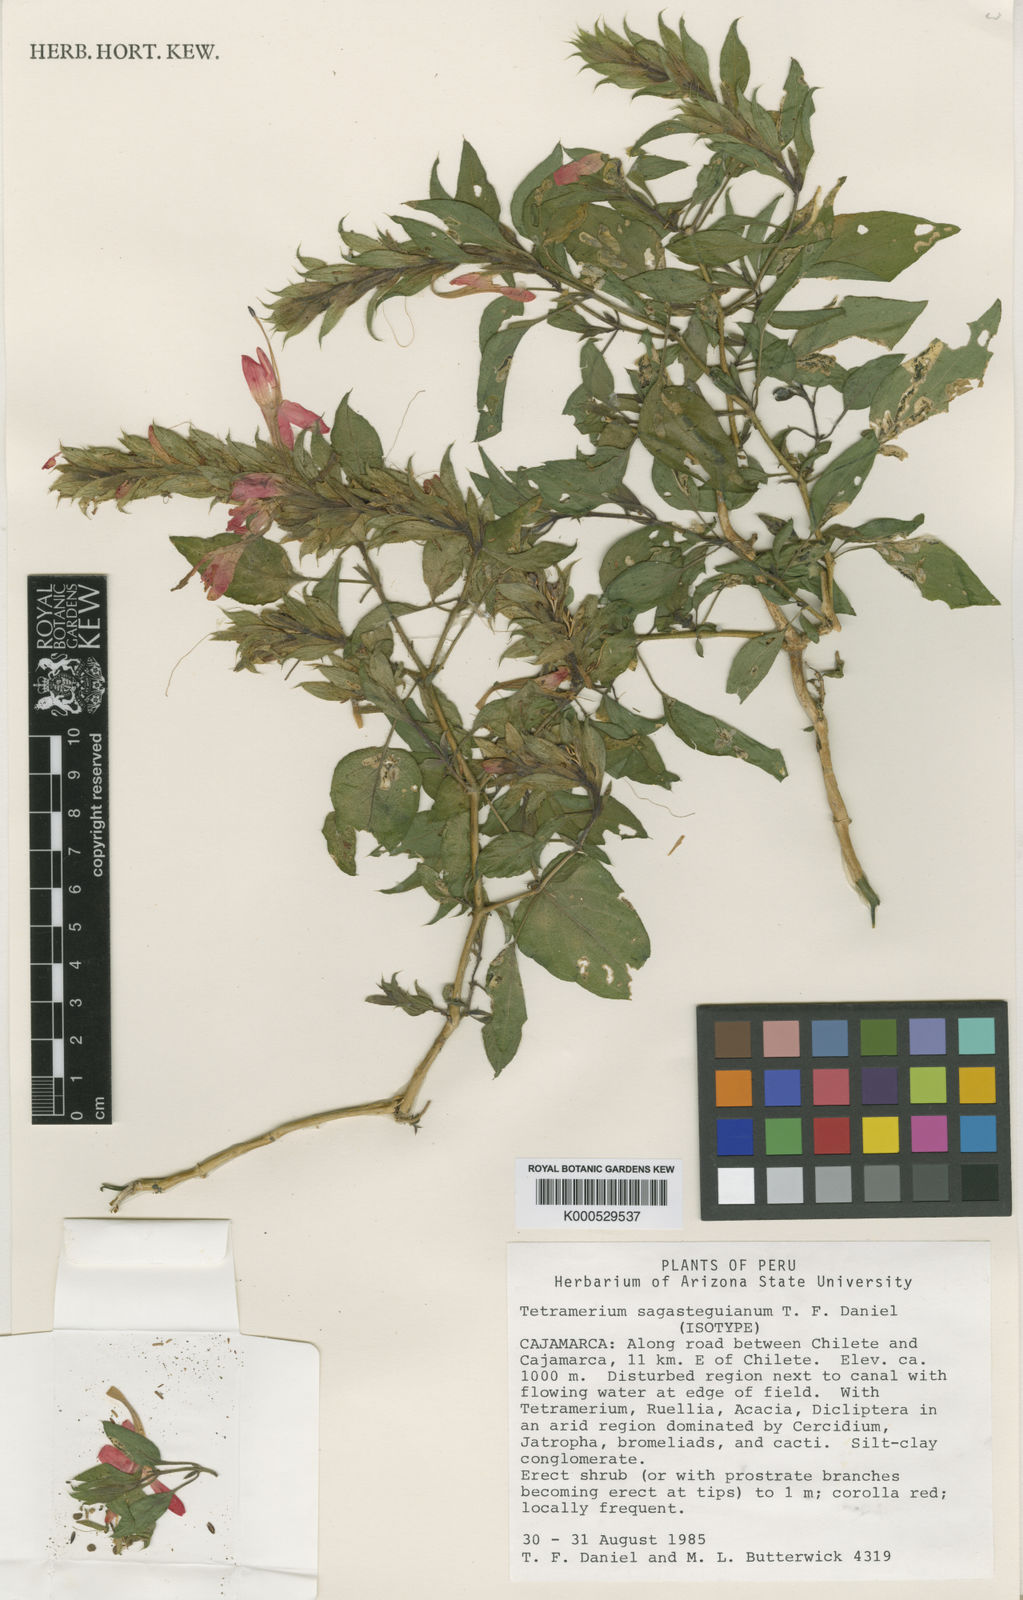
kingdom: Plantae
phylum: Tracheophyta
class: Magnoliopsida
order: Lamiales
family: Acanthaceae
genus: Tetramerium
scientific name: Tetramerium sagasteguianum
